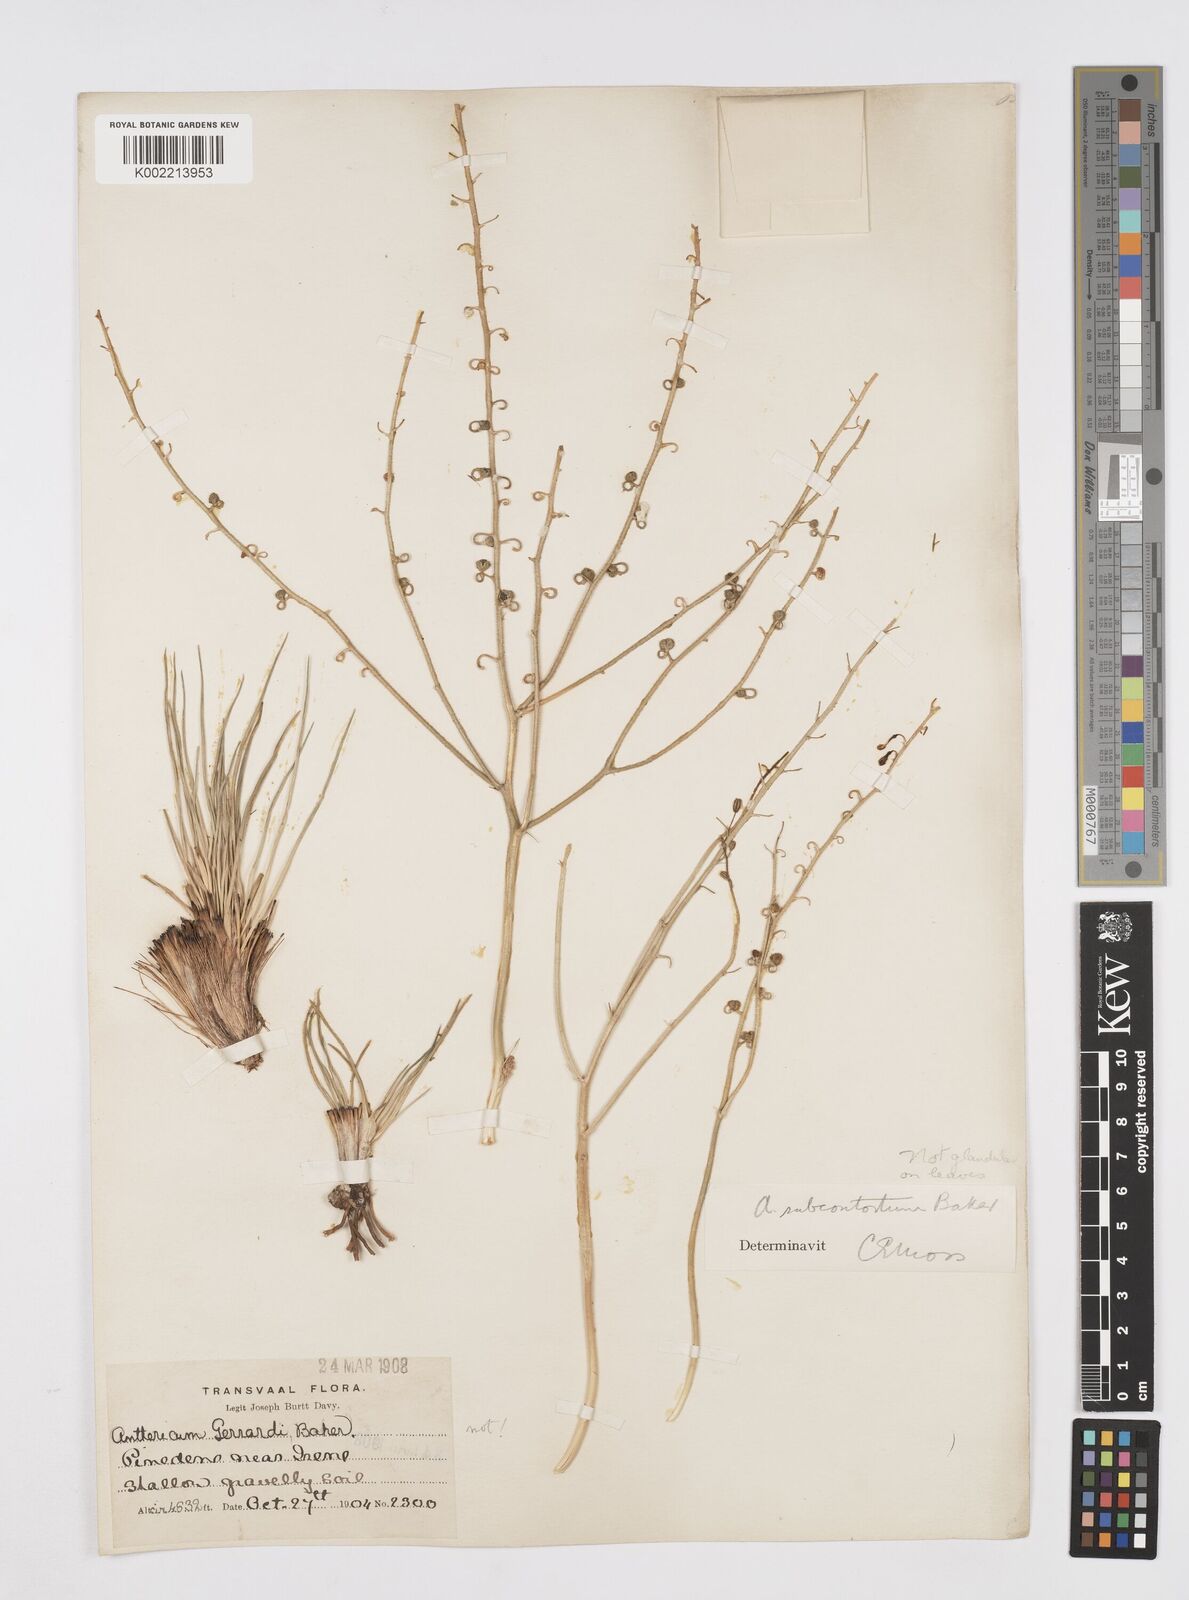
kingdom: Plantae
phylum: Tracheophyta
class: Liliopsida
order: Asparagales
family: Asphodelaceae
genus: Trachyandra
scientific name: Trachyandra asperata
